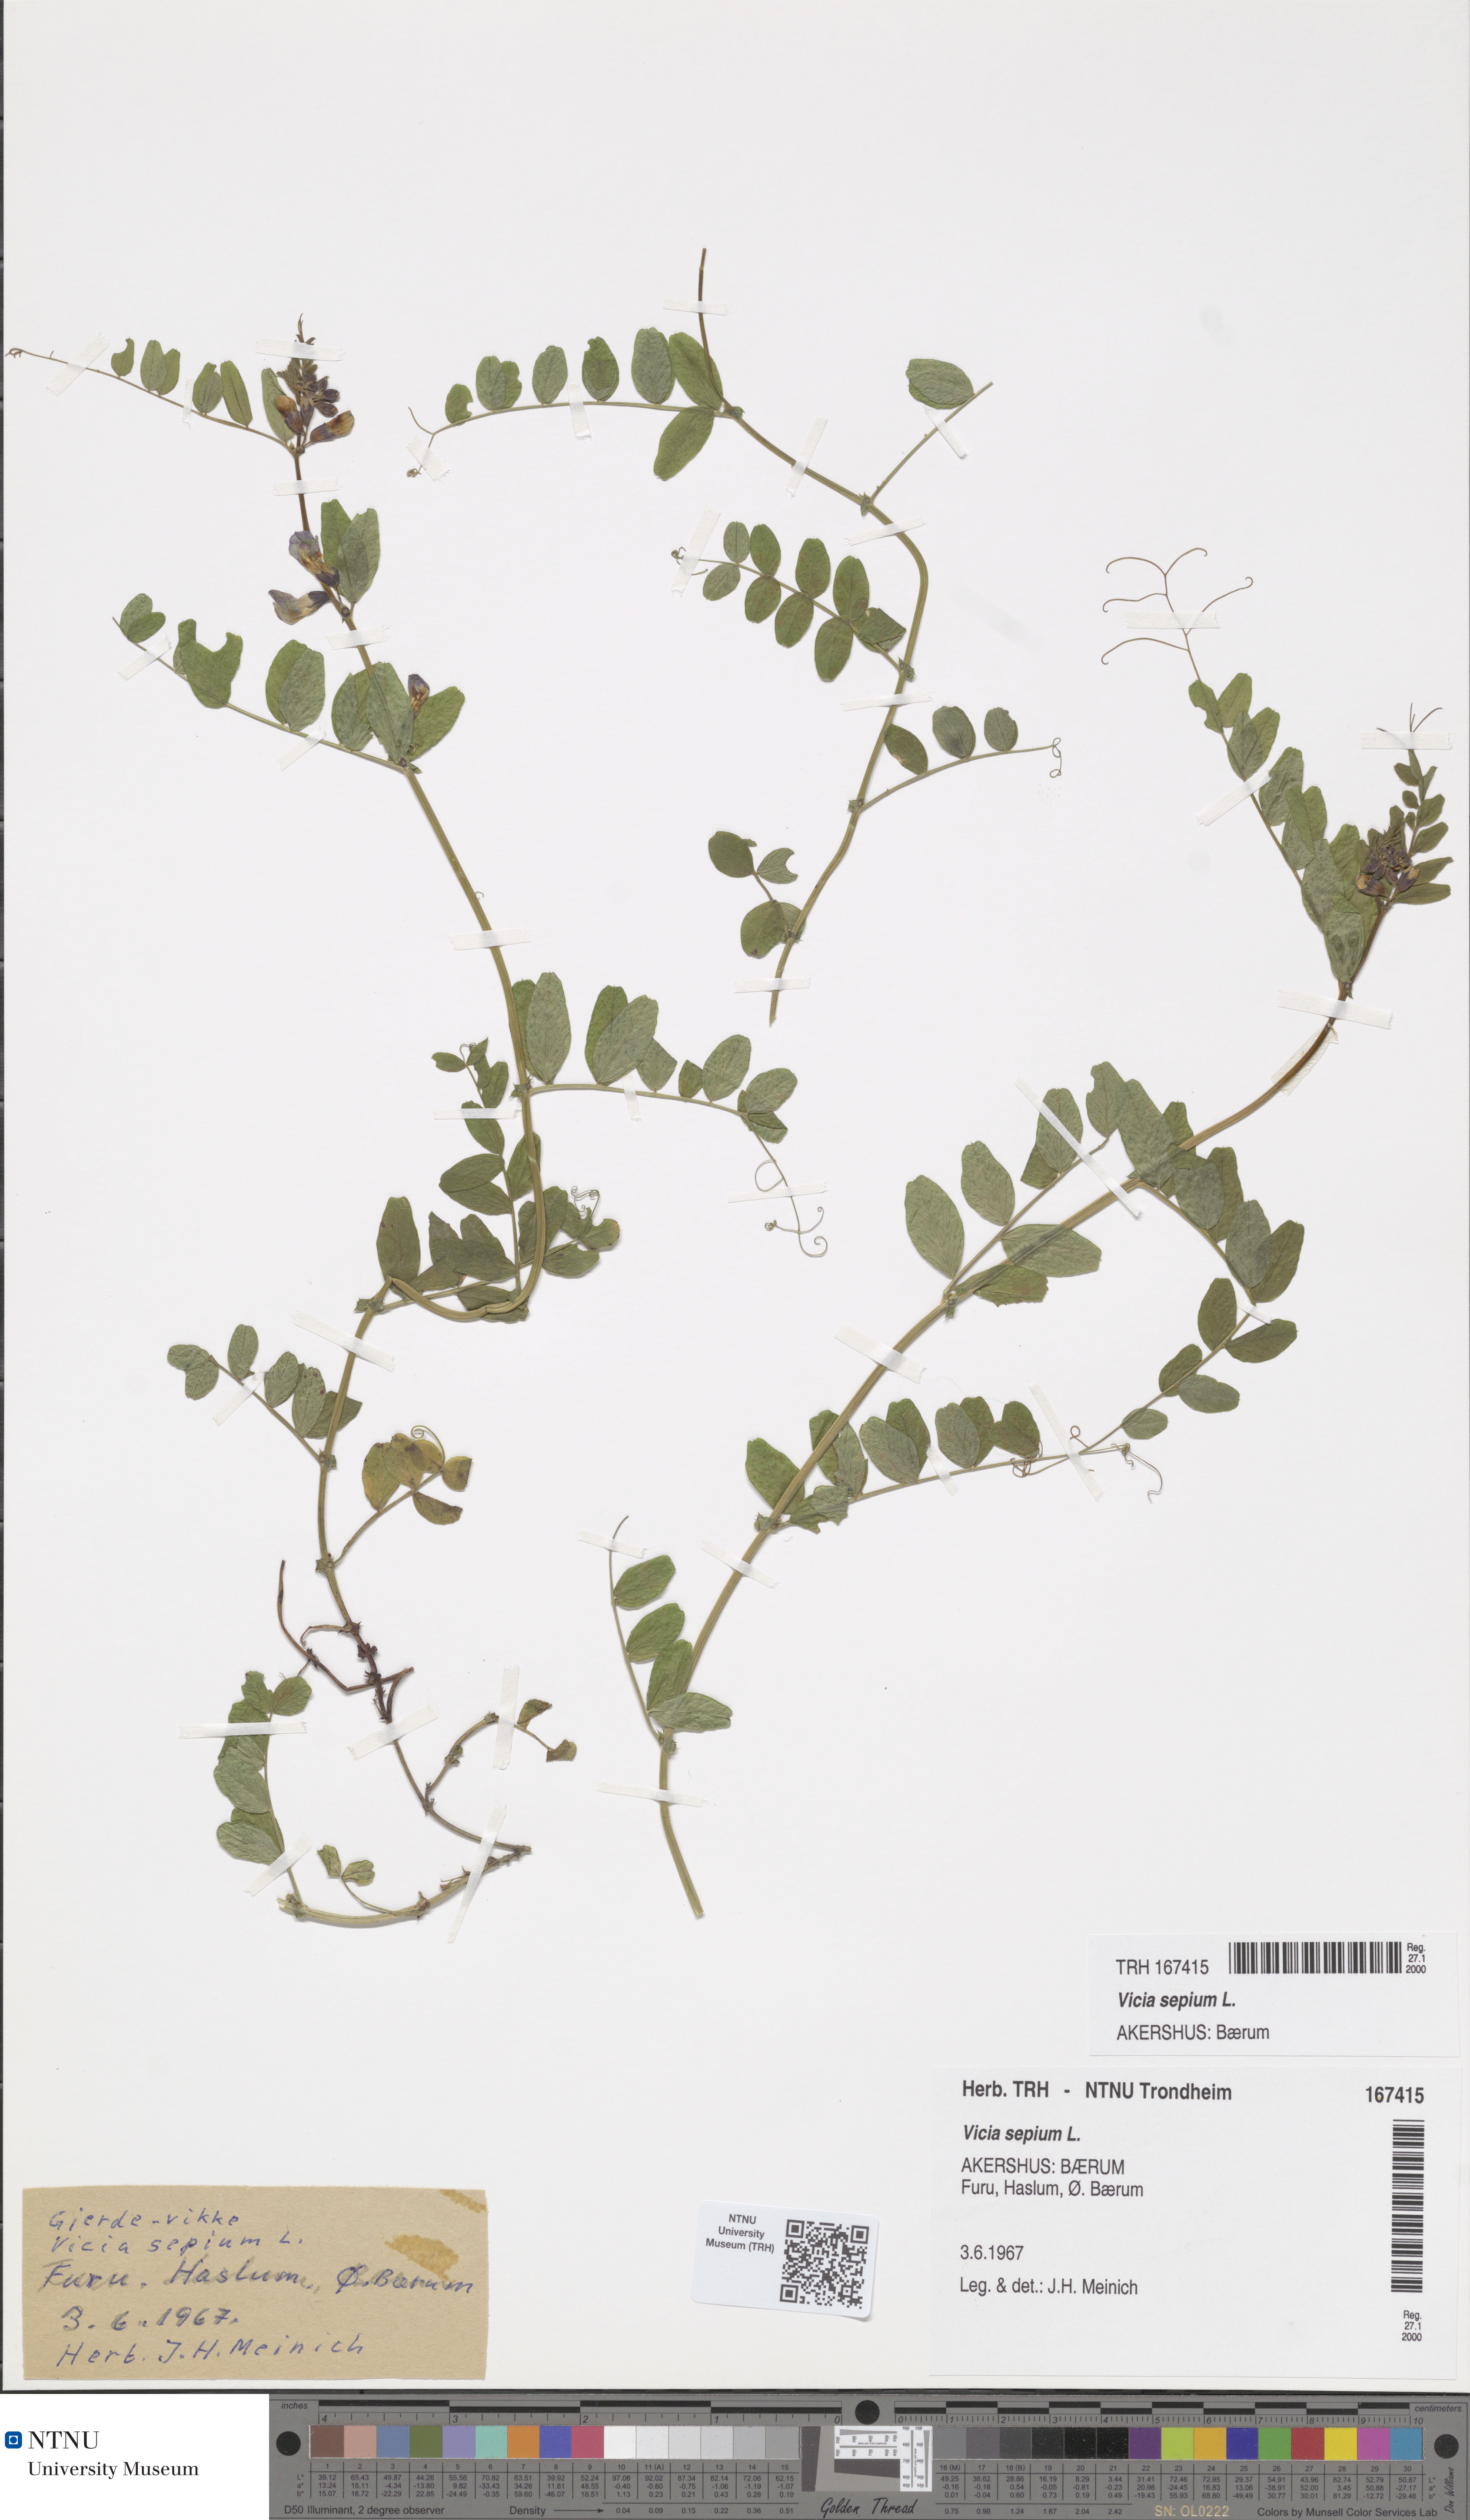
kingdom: Plantae
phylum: Tracheophyta
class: Magnoliopsida
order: Fabales
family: Fabaceae
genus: Vicia
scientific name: Vicia sepium
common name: Bush vetch
